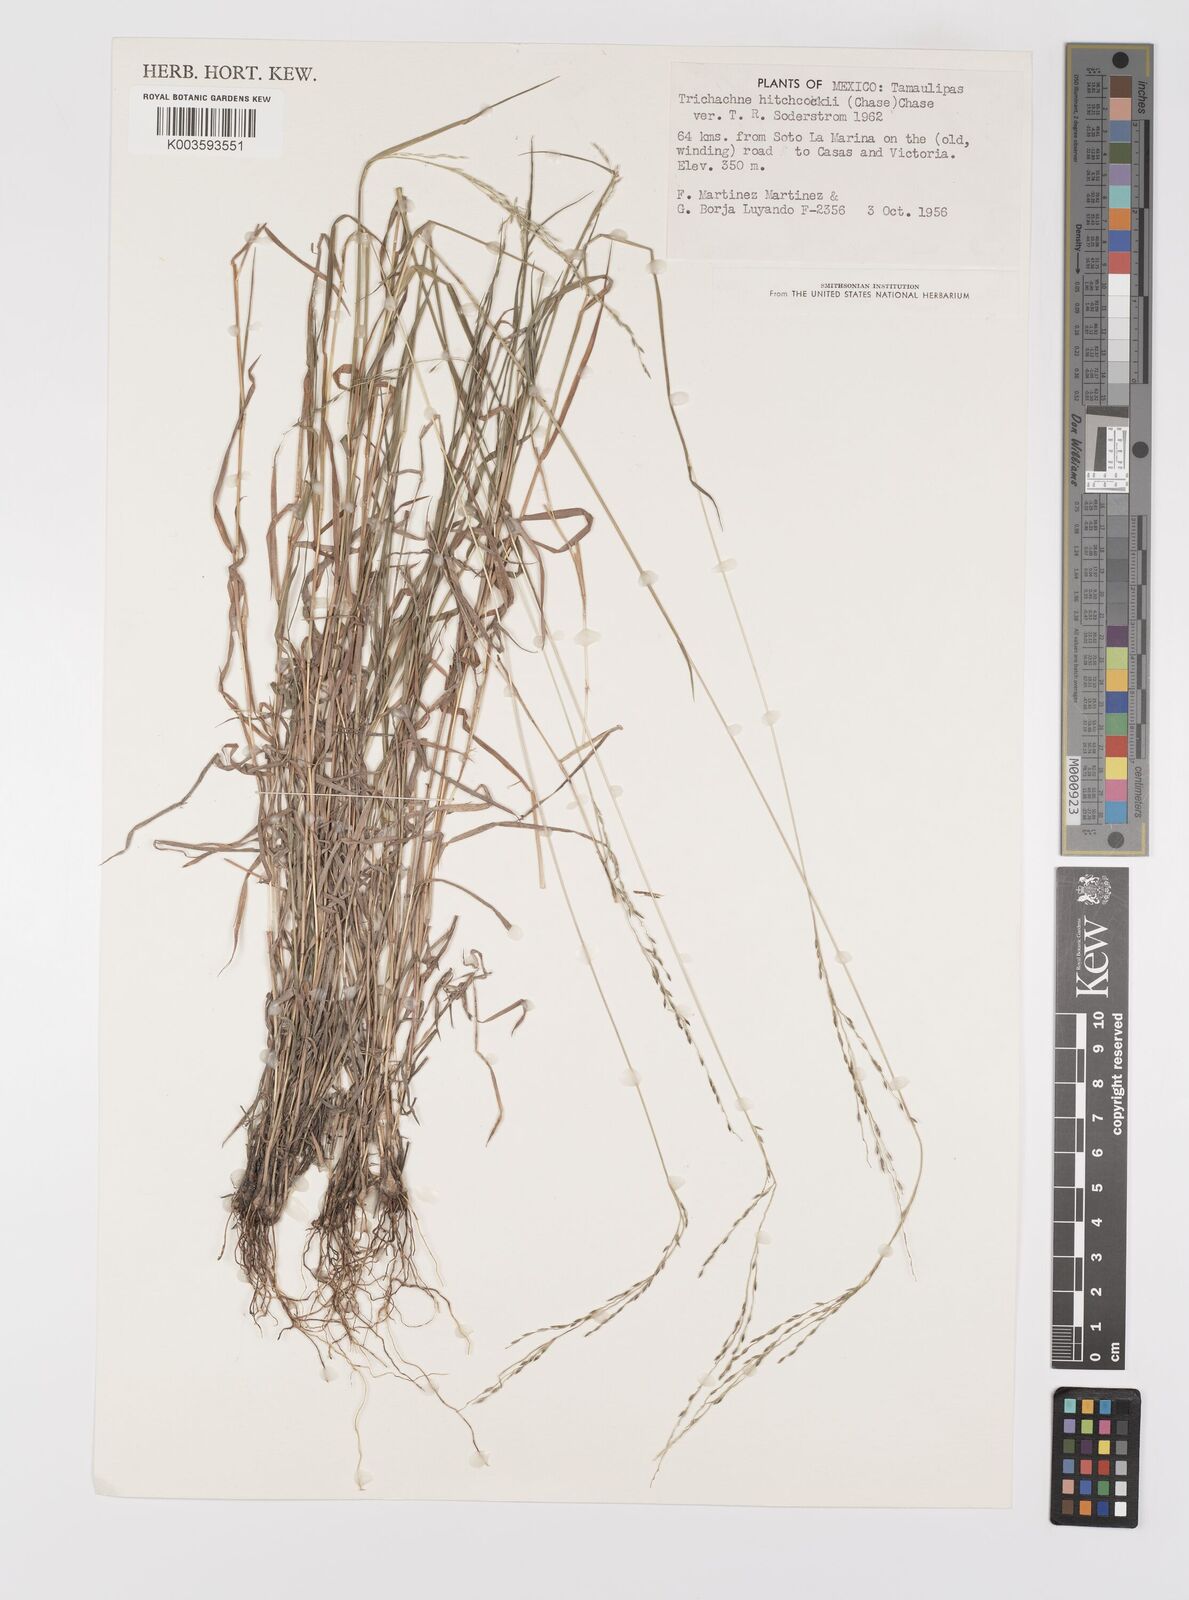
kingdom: Plantae
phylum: Tracheophyta
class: Liliopsida
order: Poales
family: Poaceae
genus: Digitaria
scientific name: Digitaria hitchcockii
